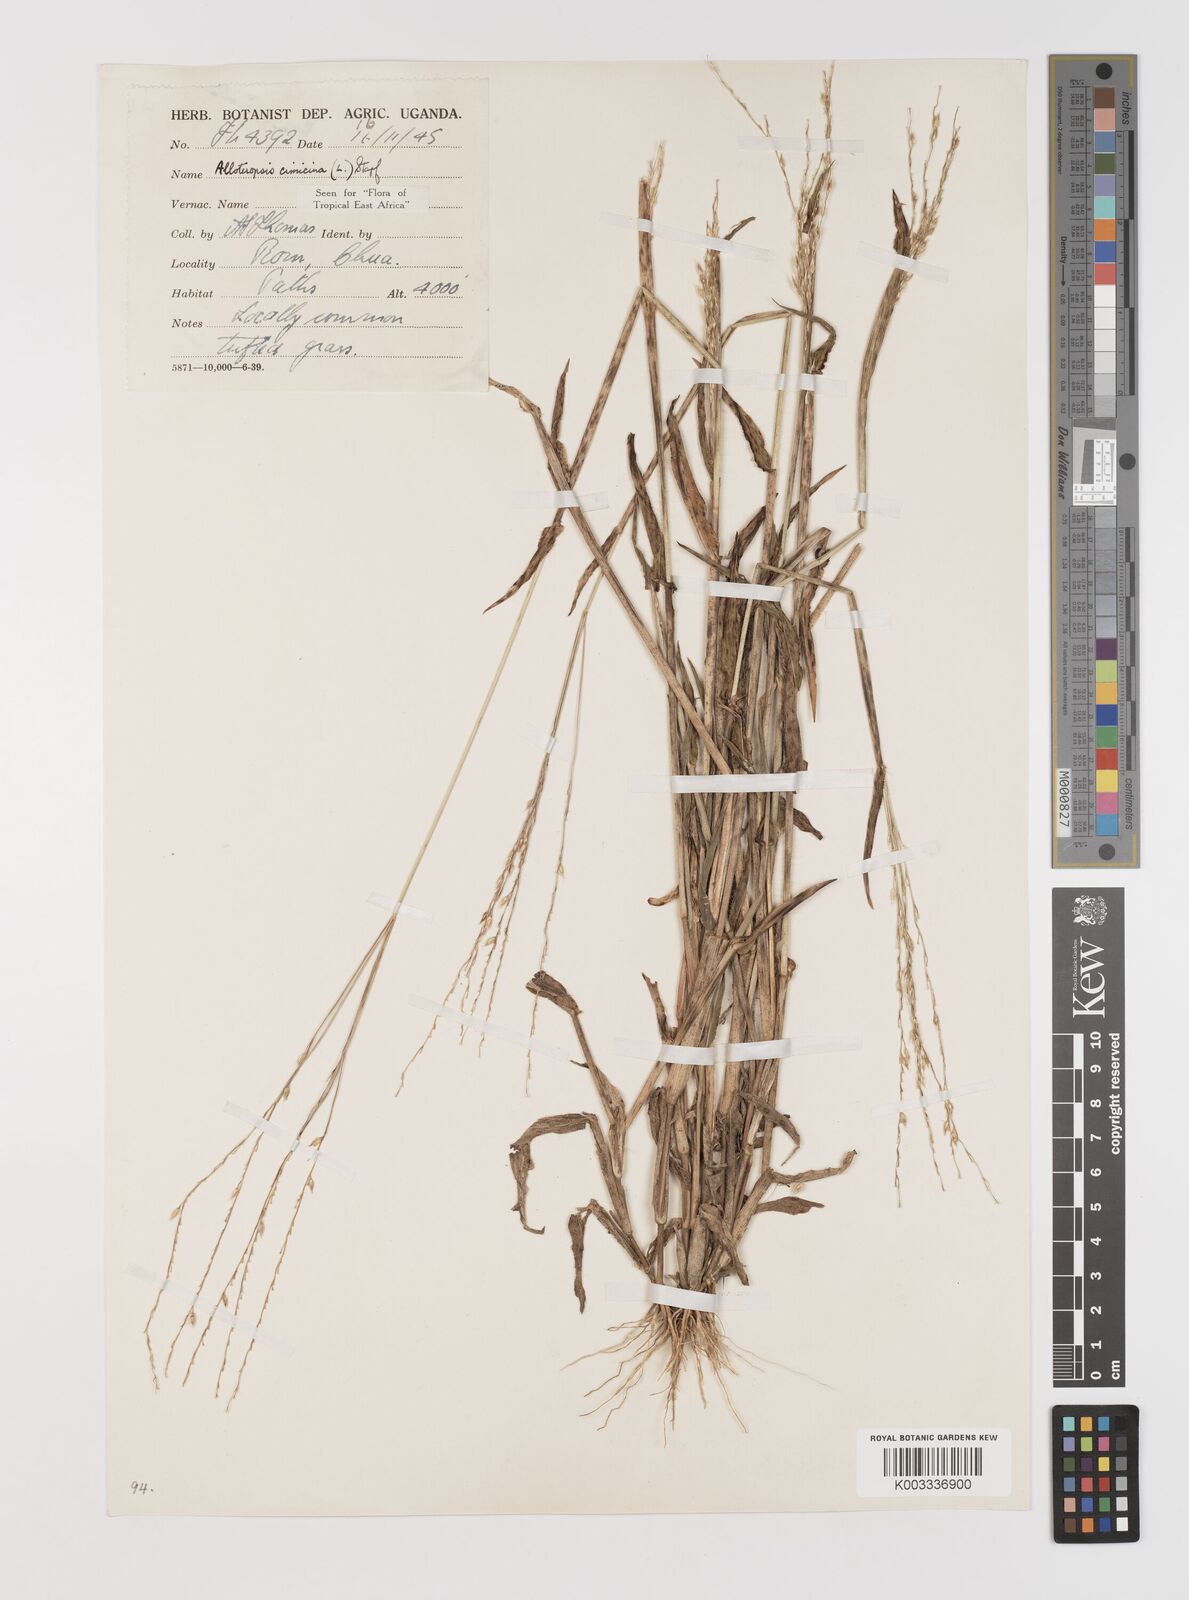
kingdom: Plantae
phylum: Tracheophyta
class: Liliopsida
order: Poales
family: Poaceae
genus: Alloteropsis
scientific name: Alloteropsis cimicina
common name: Summergrass
